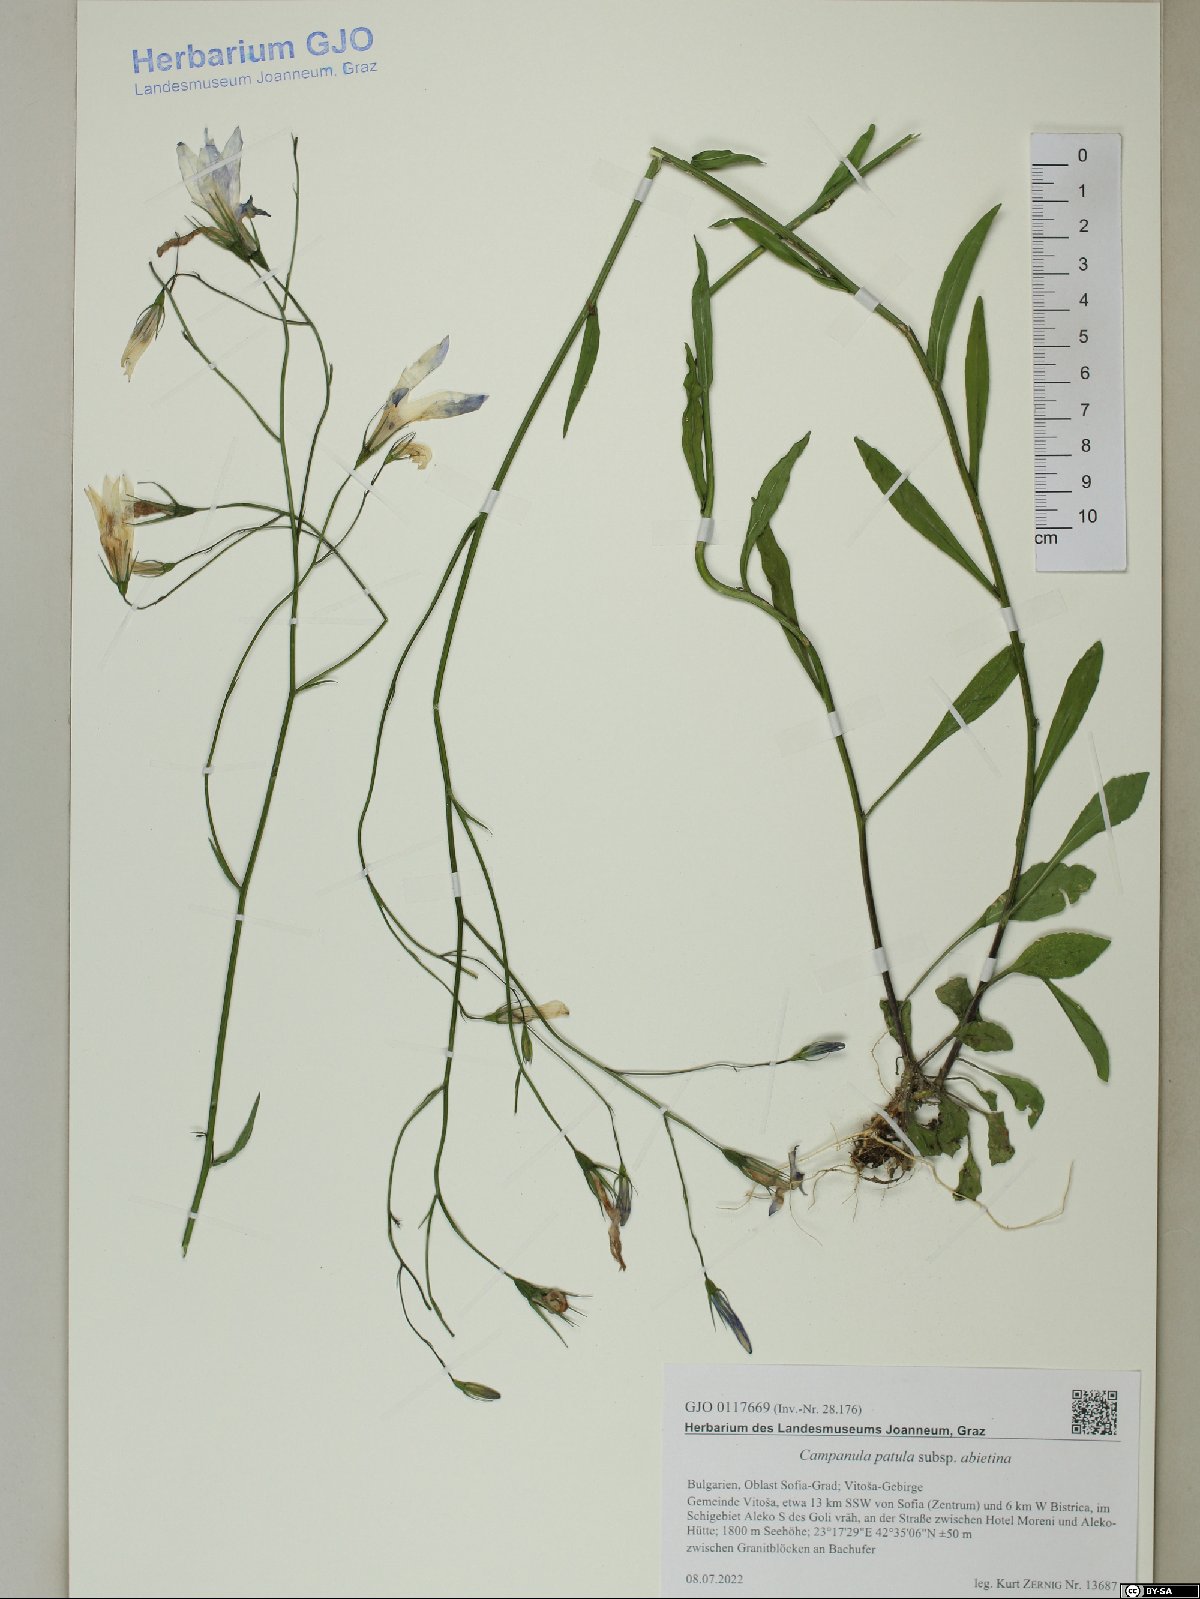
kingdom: Plantae
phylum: Tracheophyta
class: Magnoliopsida
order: Asterales
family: Campanulaceae
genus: Campanula
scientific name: Campanula patula
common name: Spreading bellflower
